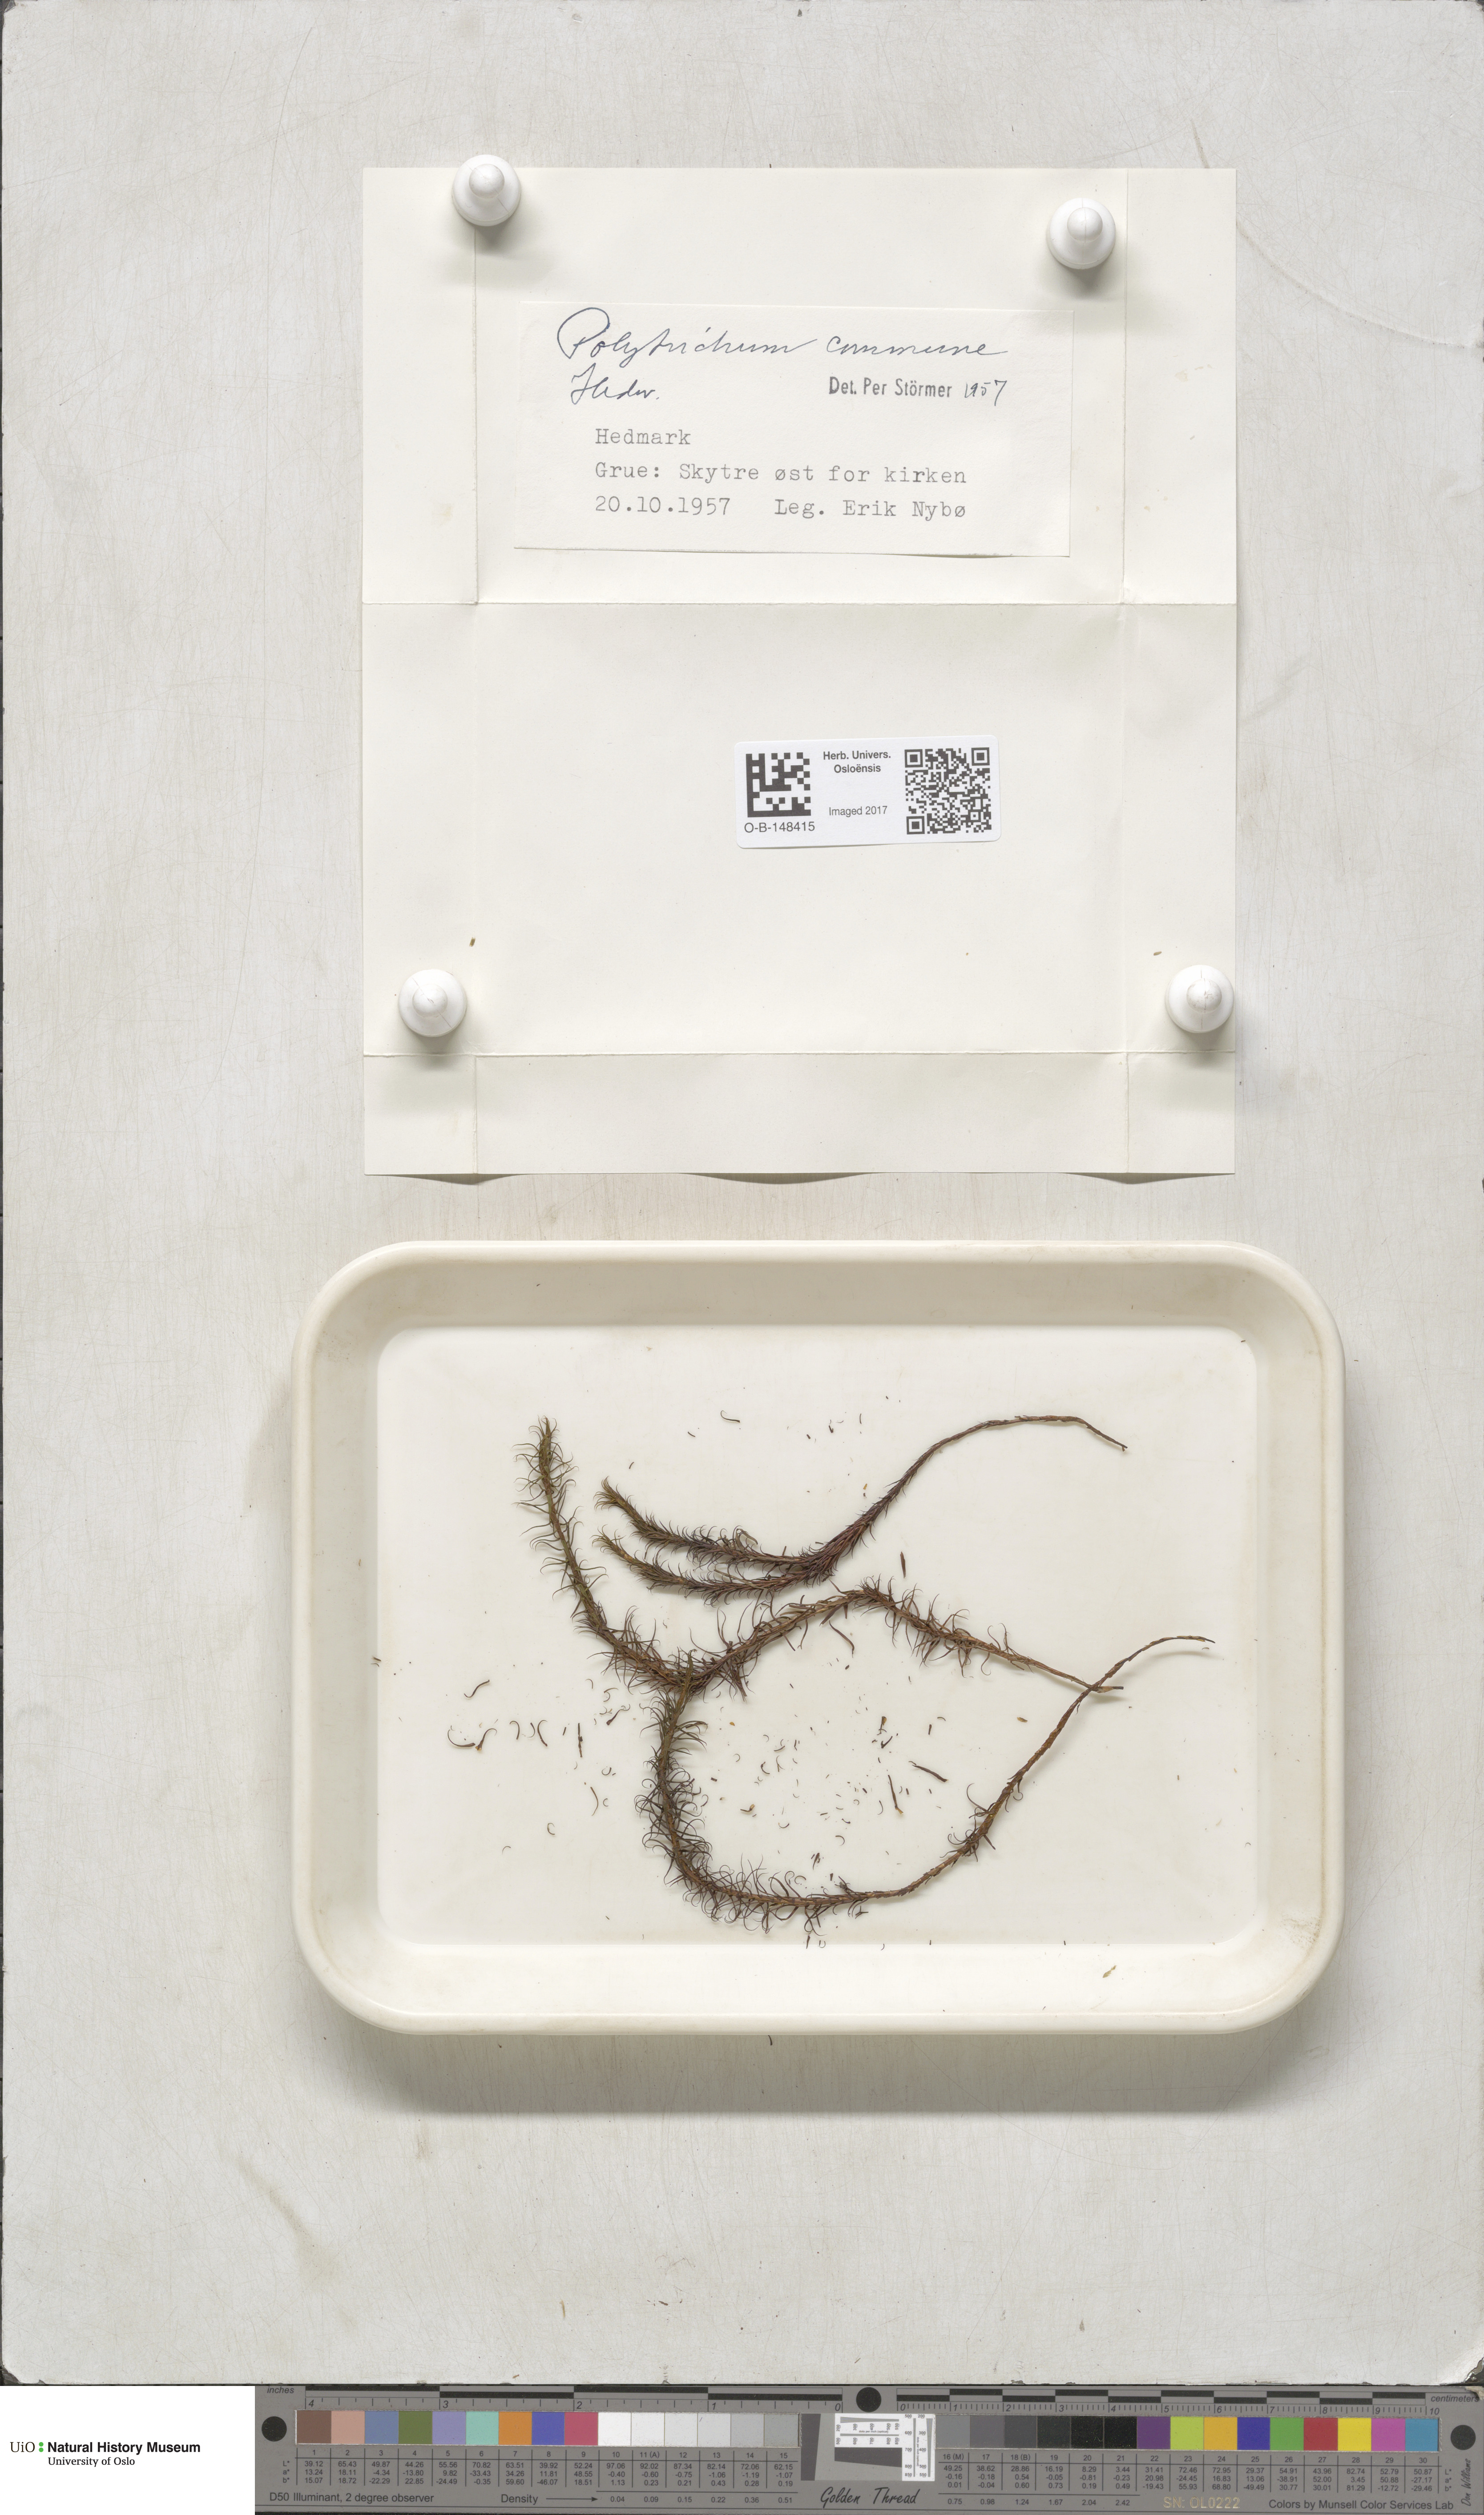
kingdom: Plantae
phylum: Bryophyta
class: Polytrichopsida
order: Polytrichales
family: Polytrichaceae
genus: Polytrichum
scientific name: Polytrichum commune
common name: Common haircap
